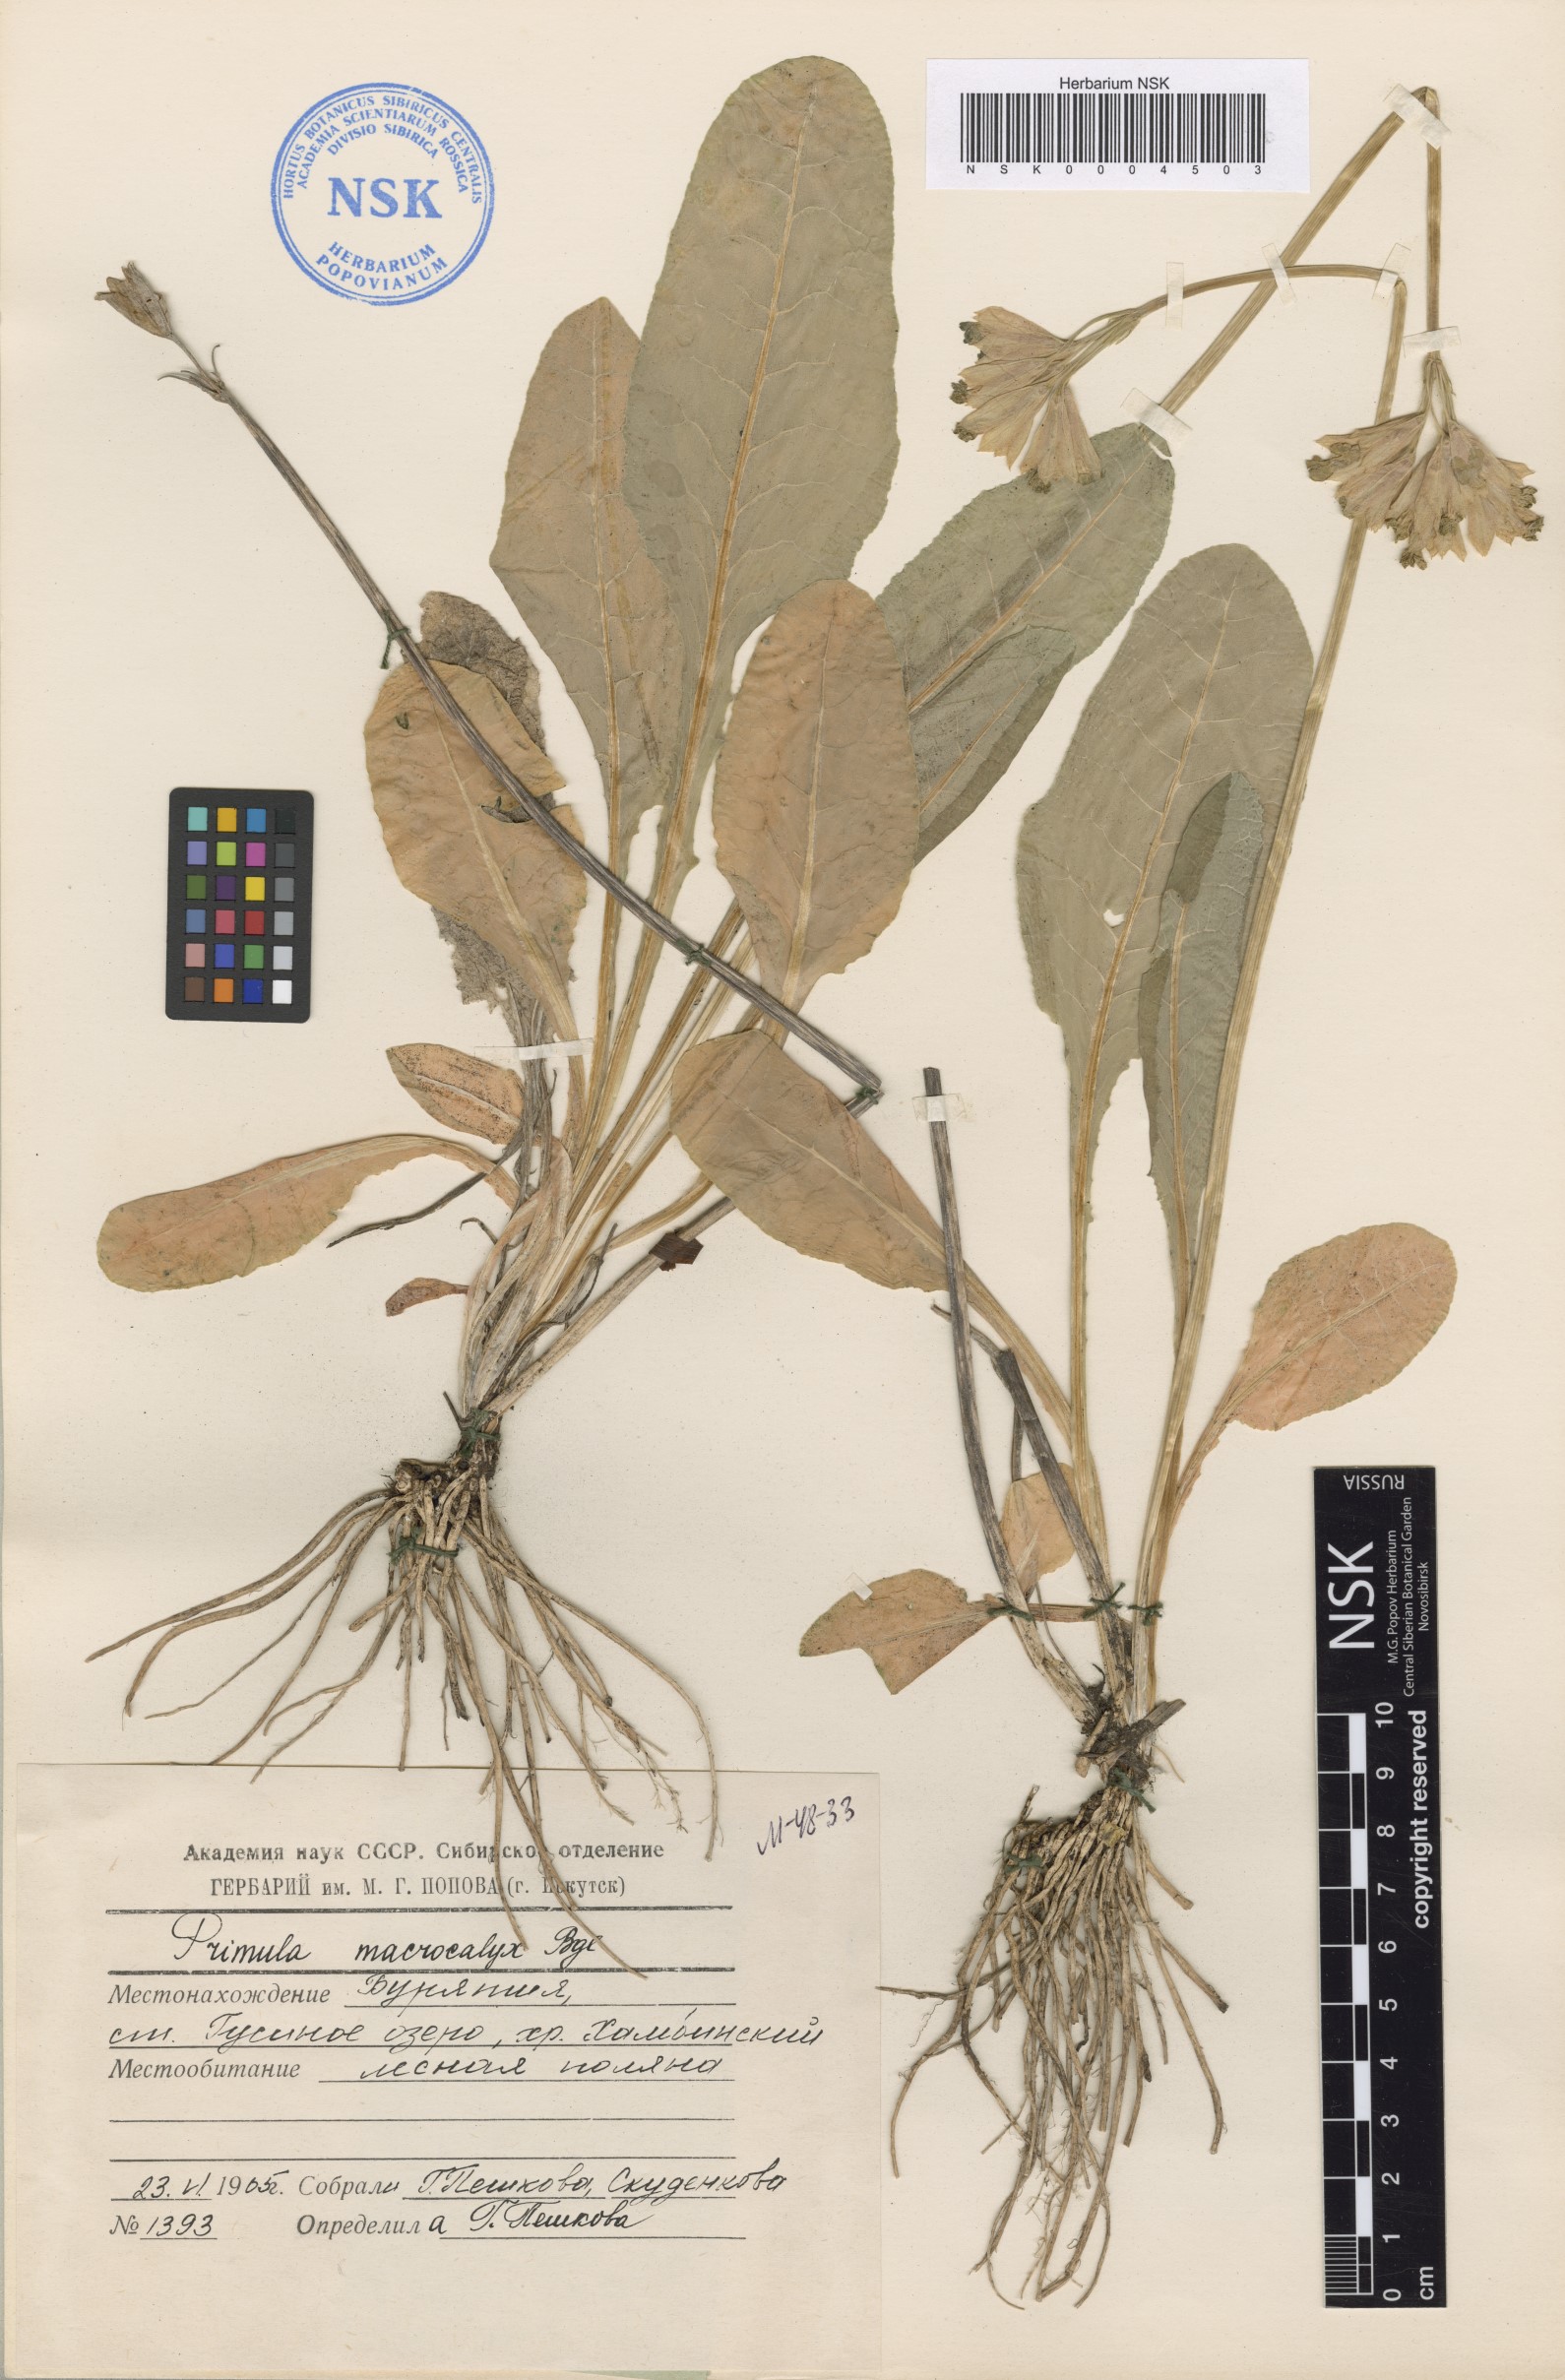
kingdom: Plantae
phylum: Tracheophyta
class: Magnoliopsida
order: Ericales
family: Primulaceae
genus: Primula
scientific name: Primula veris
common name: Cowslip
